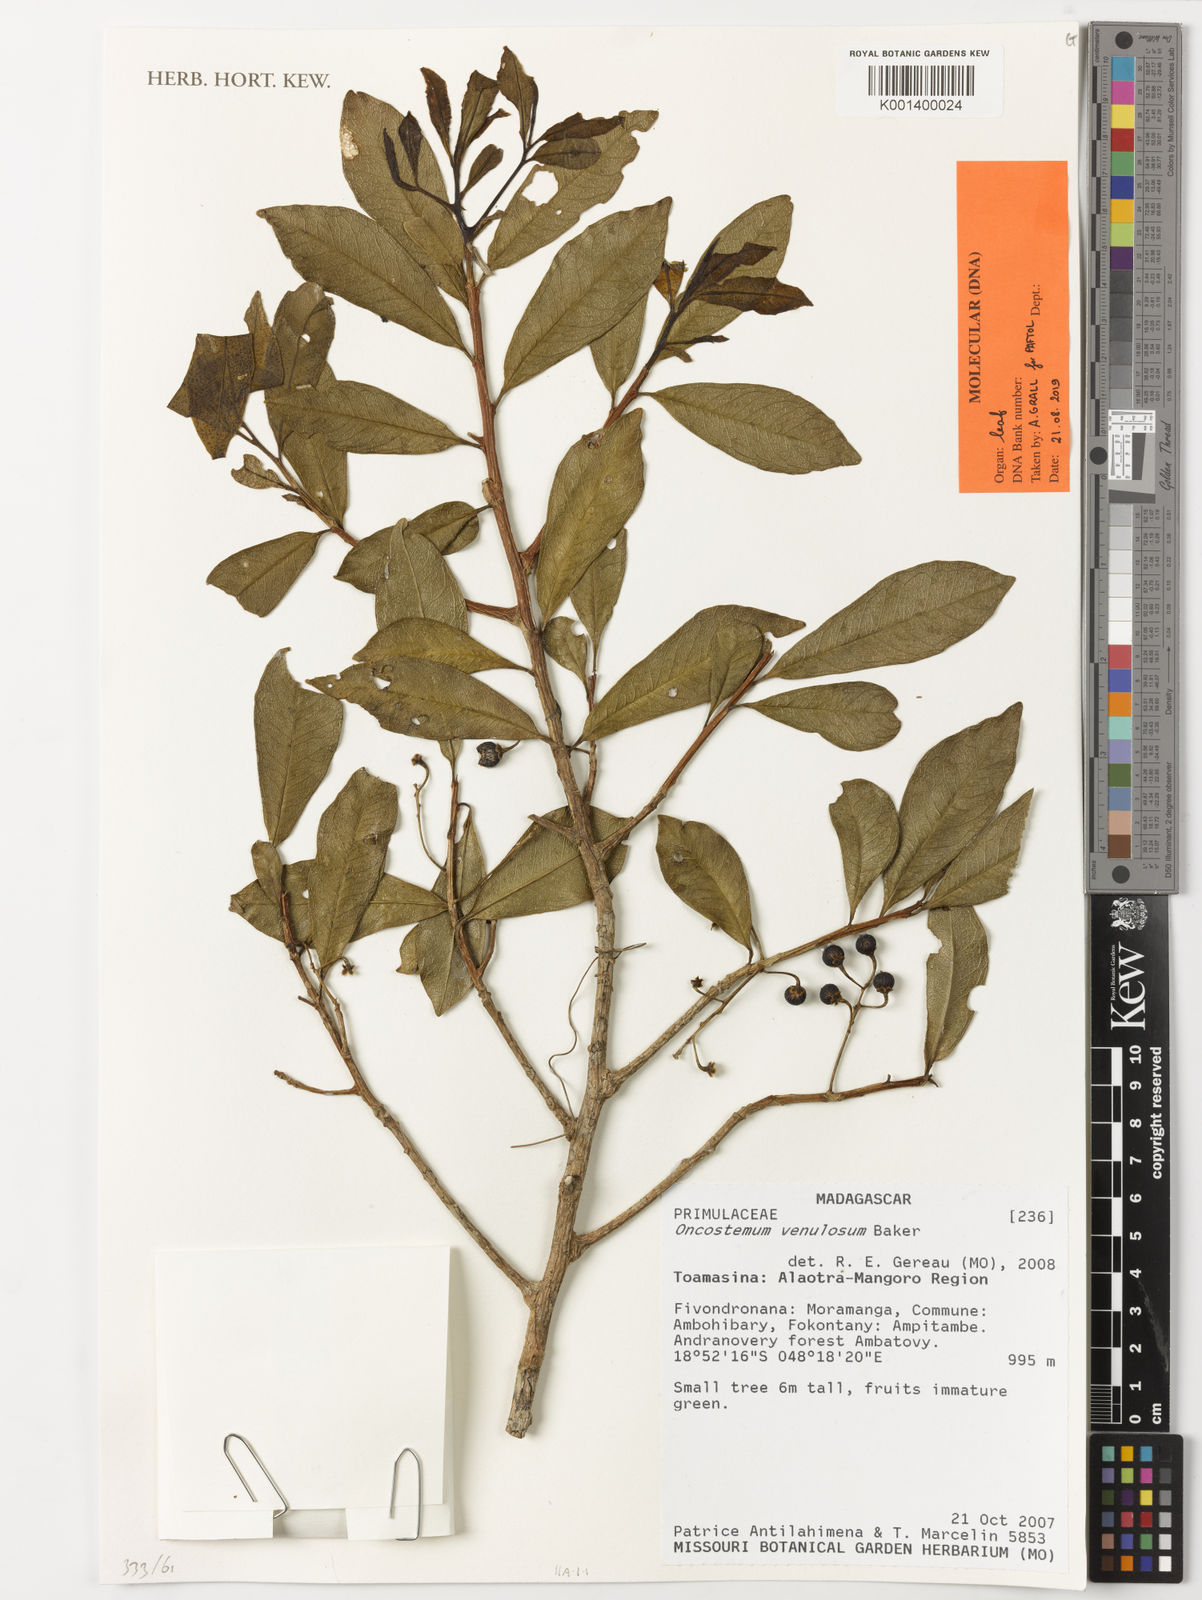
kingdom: Plantae
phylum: Tracheophyta
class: Magnoliopsida
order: Ericales
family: Primulaceae
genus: Oncostemum
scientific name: Oncostemum venulosum
